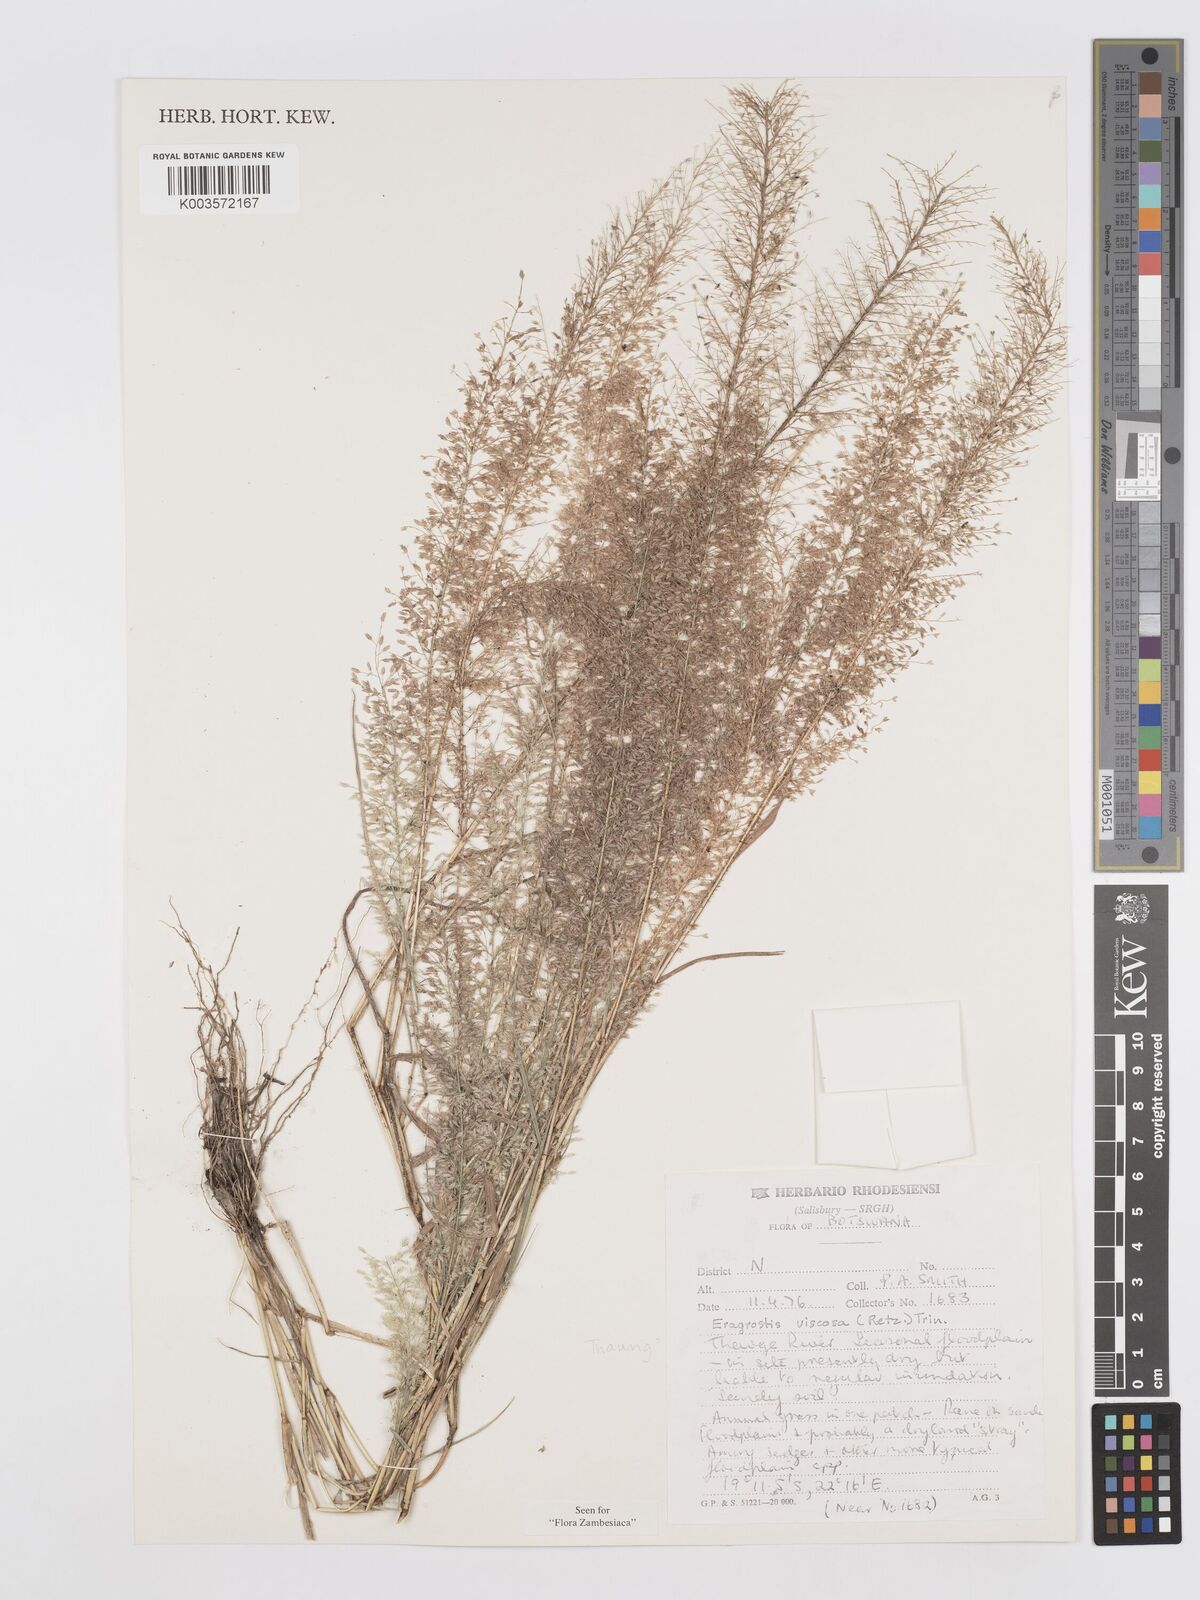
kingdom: Plantae
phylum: Tracheophyta
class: Liliopsida
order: Poales
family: Poaceae
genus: Eragrostis
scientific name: Eragrostis
